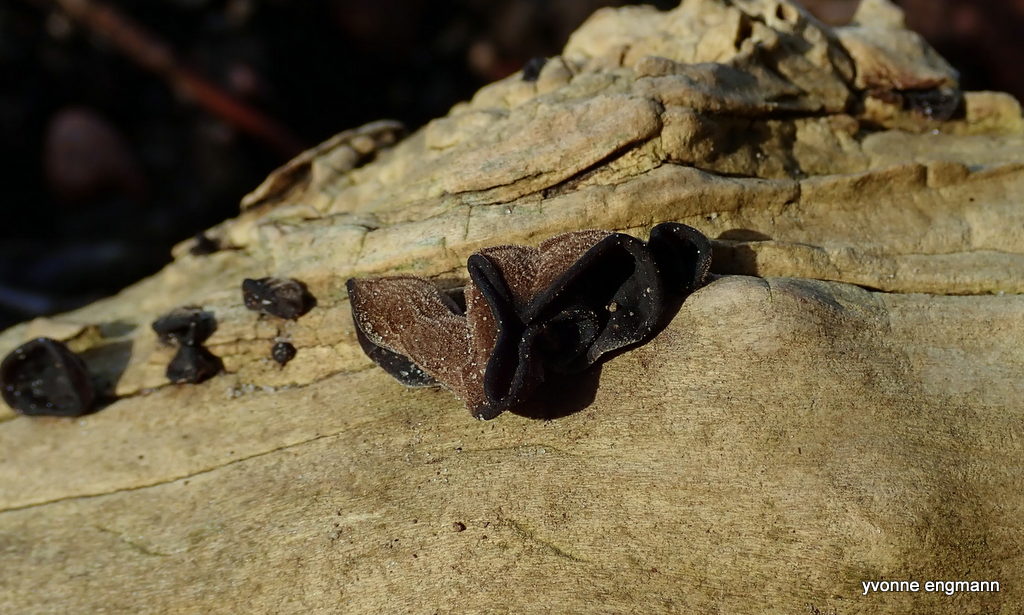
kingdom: Fungi
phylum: Basidiomycota
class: Agaricomycetes
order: Auriculariales
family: Auriculariaceae
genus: Auricularia
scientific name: Auricularia auricula-judae
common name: almindelig judasøre
